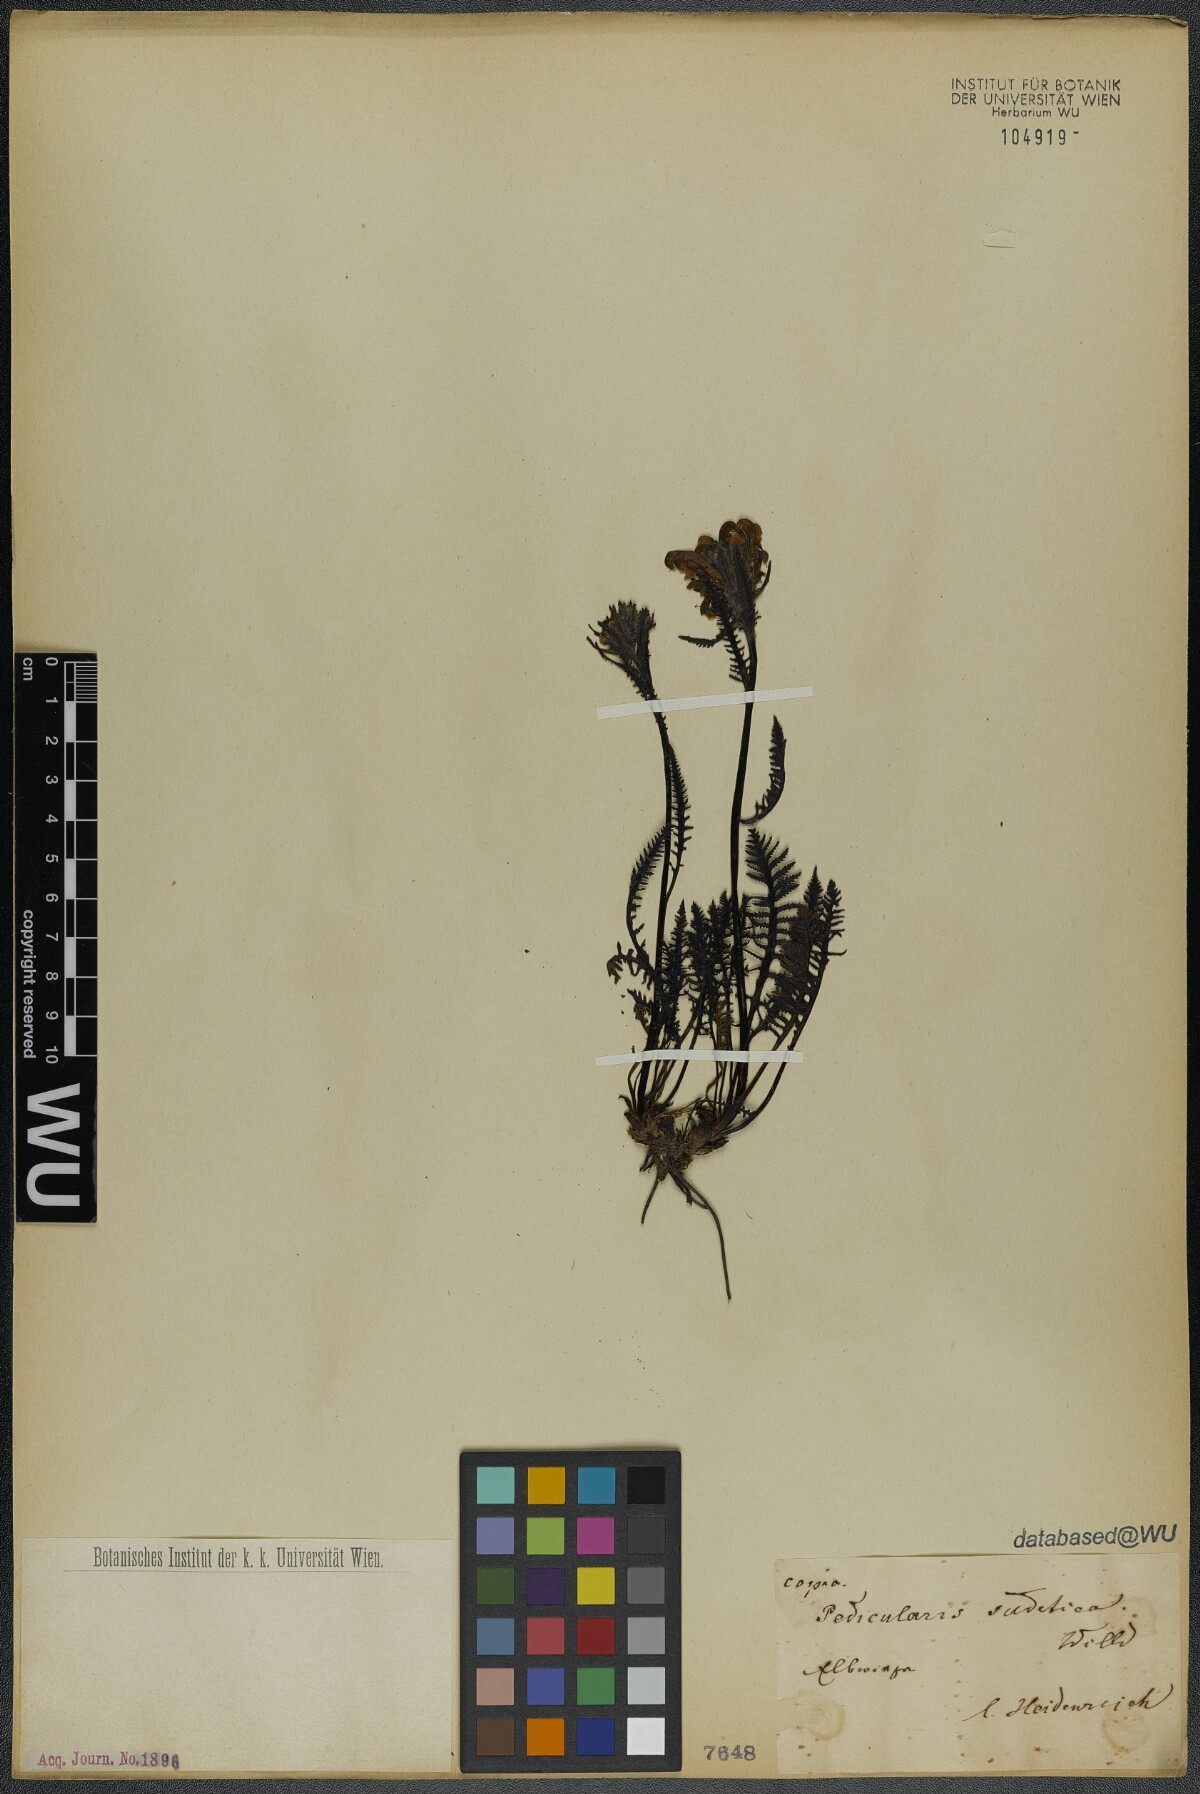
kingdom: Plantae
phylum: Tracheophyta
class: Magnoliopsida
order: Lamiales
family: Orobanchaceae
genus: Pedicularis
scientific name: Pedicularis sudetica
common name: Sudeten lousewort
